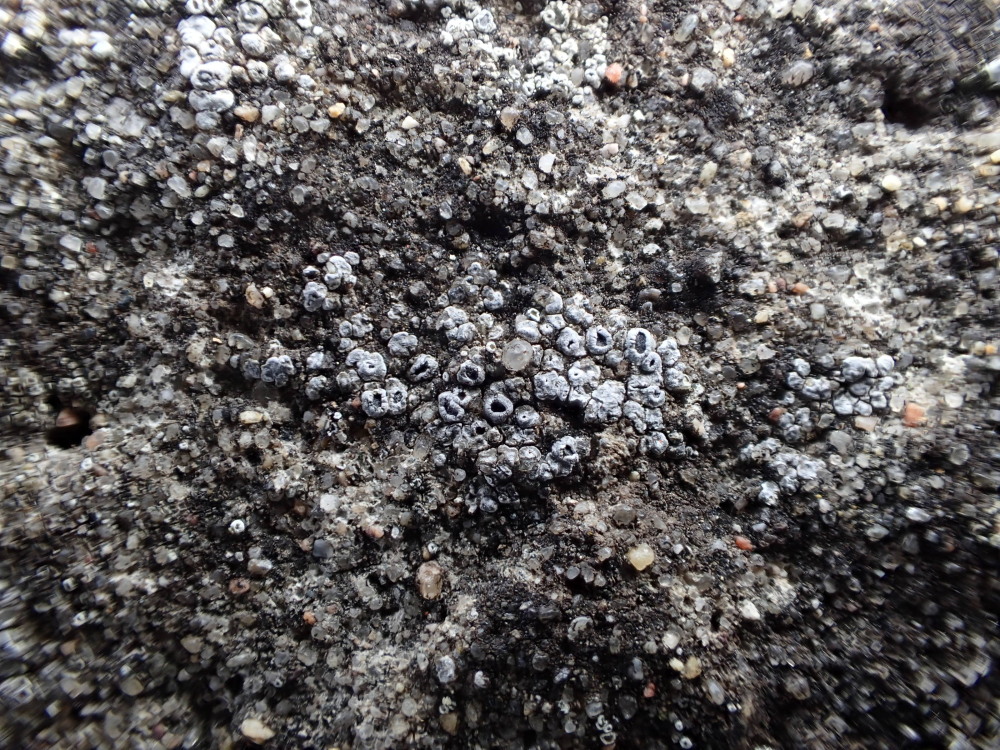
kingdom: Fungi
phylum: Ascomycota
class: Lecanoromycetes
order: Pertusariales
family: Megasporaceae
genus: Circinaria
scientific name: Circinaria contorta
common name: indviklet hulskivelav
